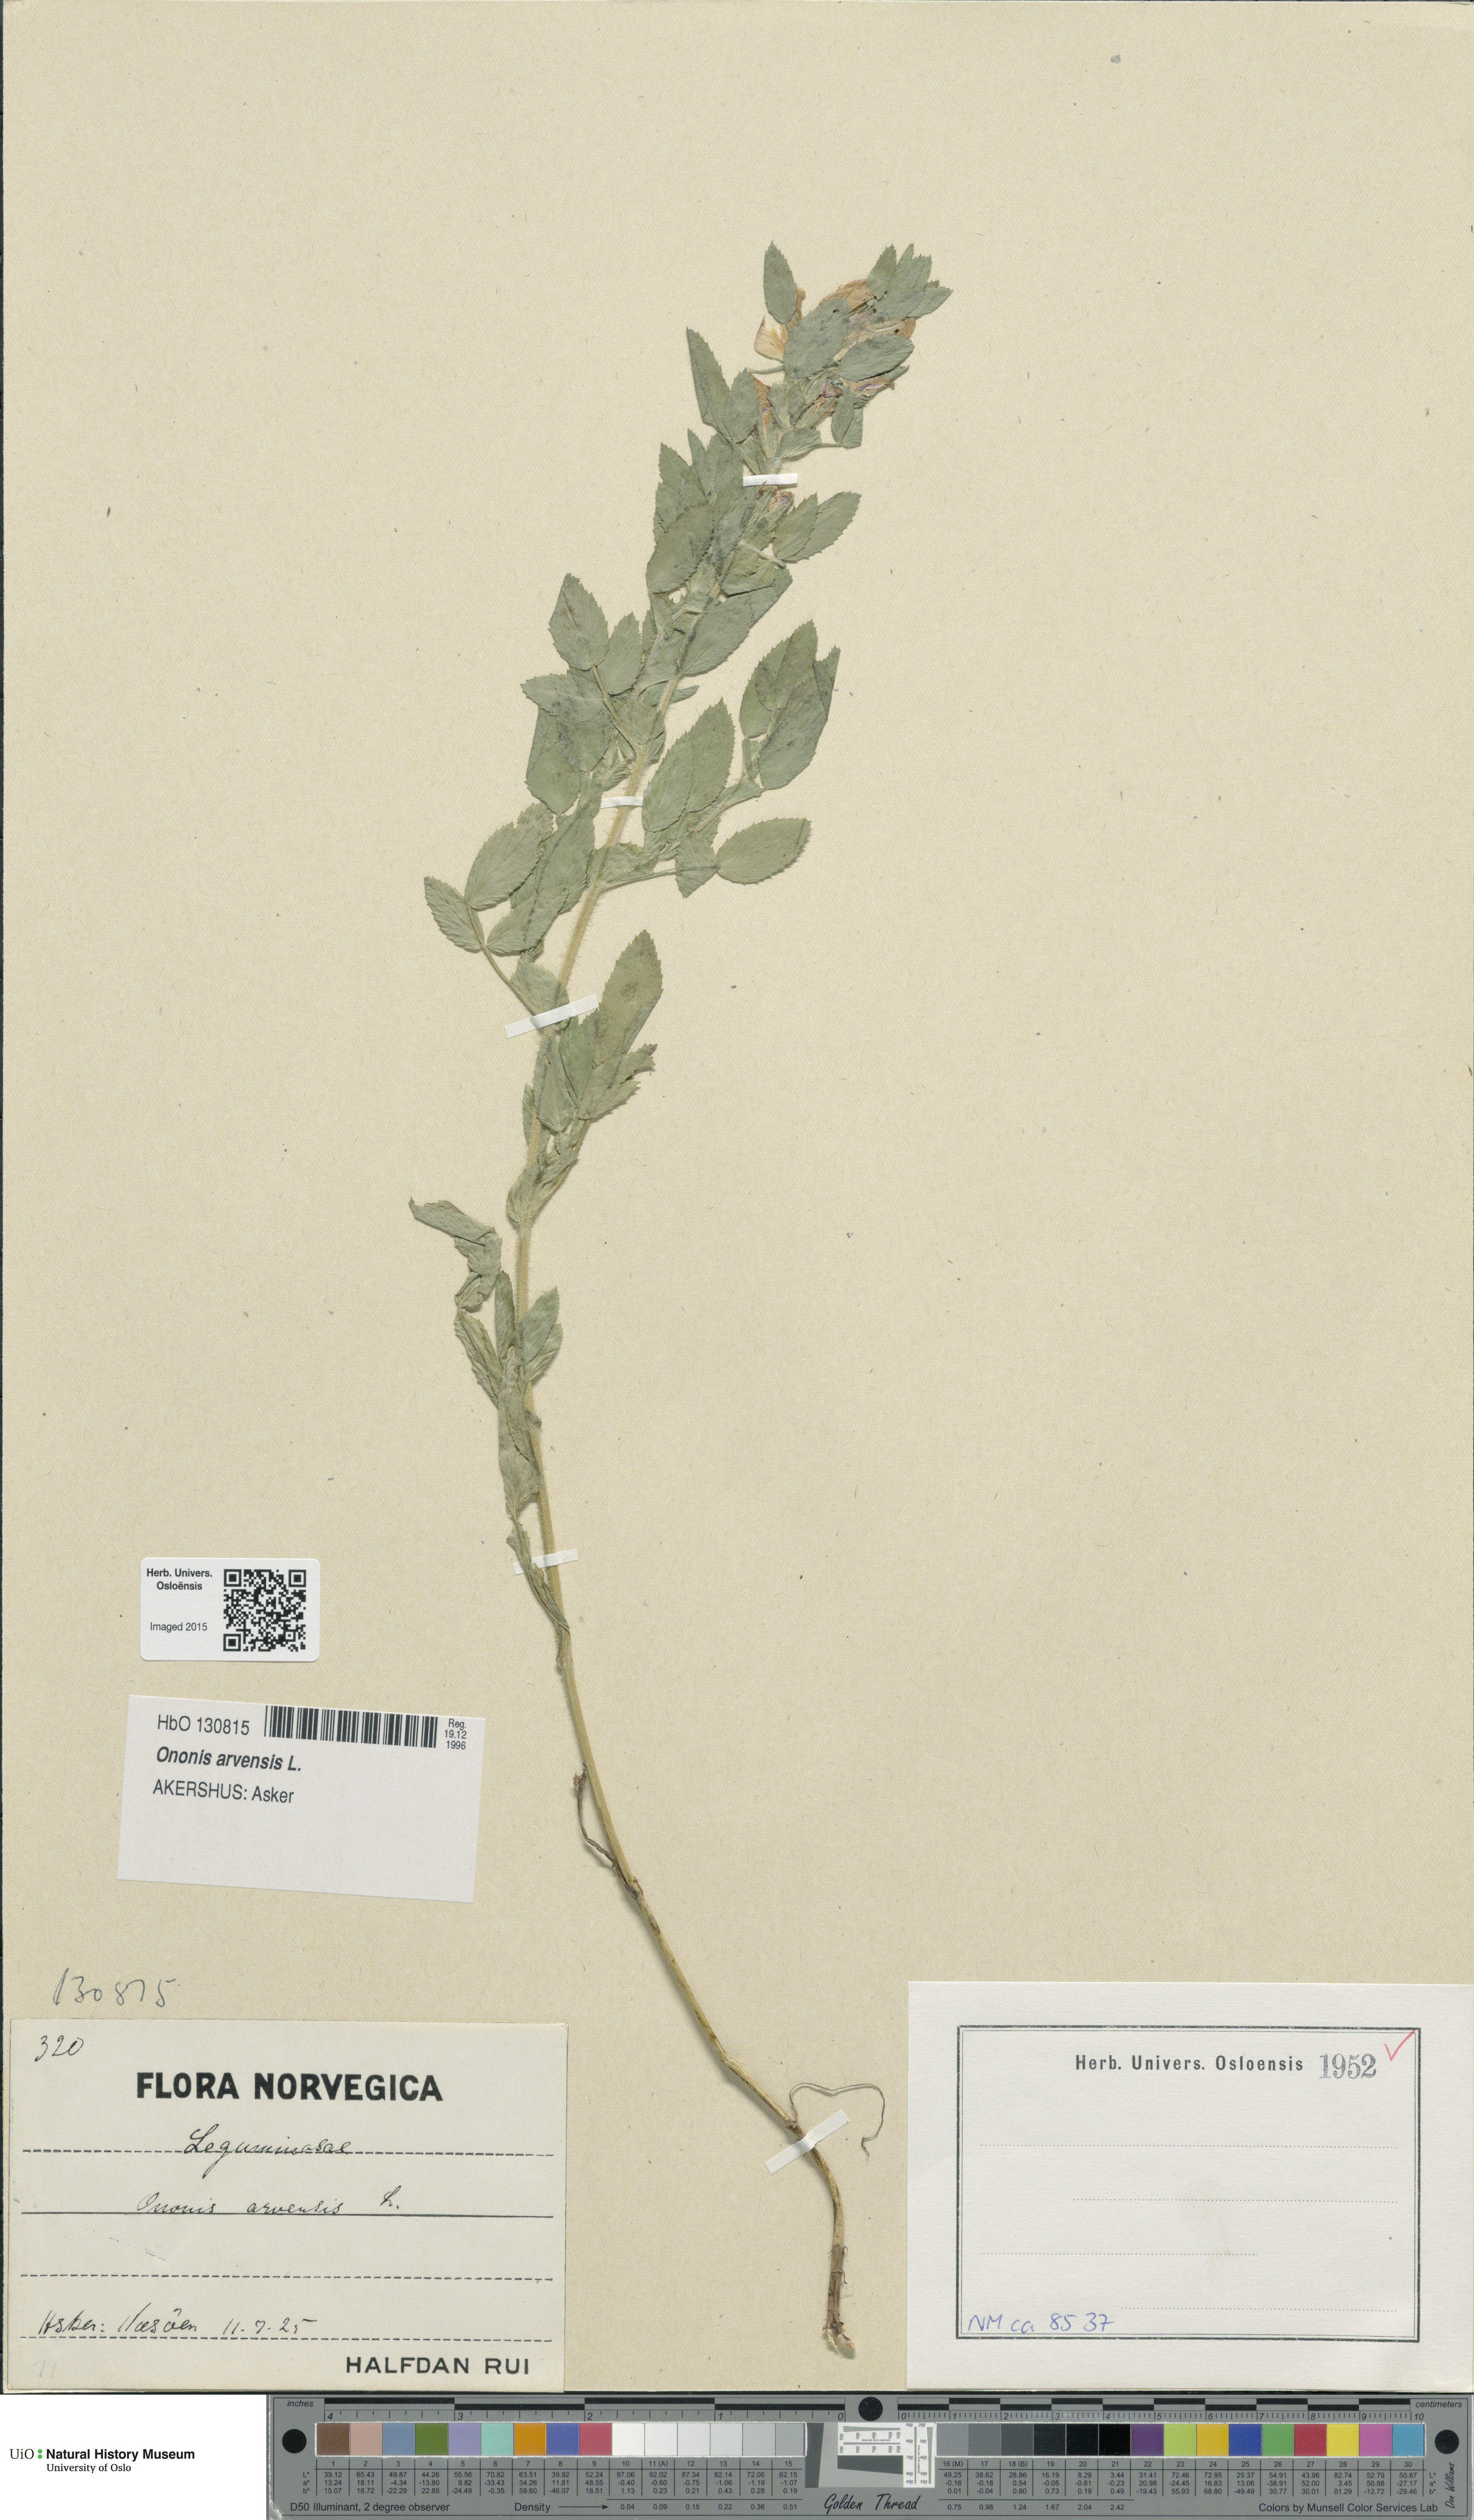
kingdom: Plantae
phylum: Tracheophyta
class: Magnoliopsida
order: Fabales
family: Fabaceae
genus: Ononis
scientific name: Ononis arvensis
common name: Field restharrow
